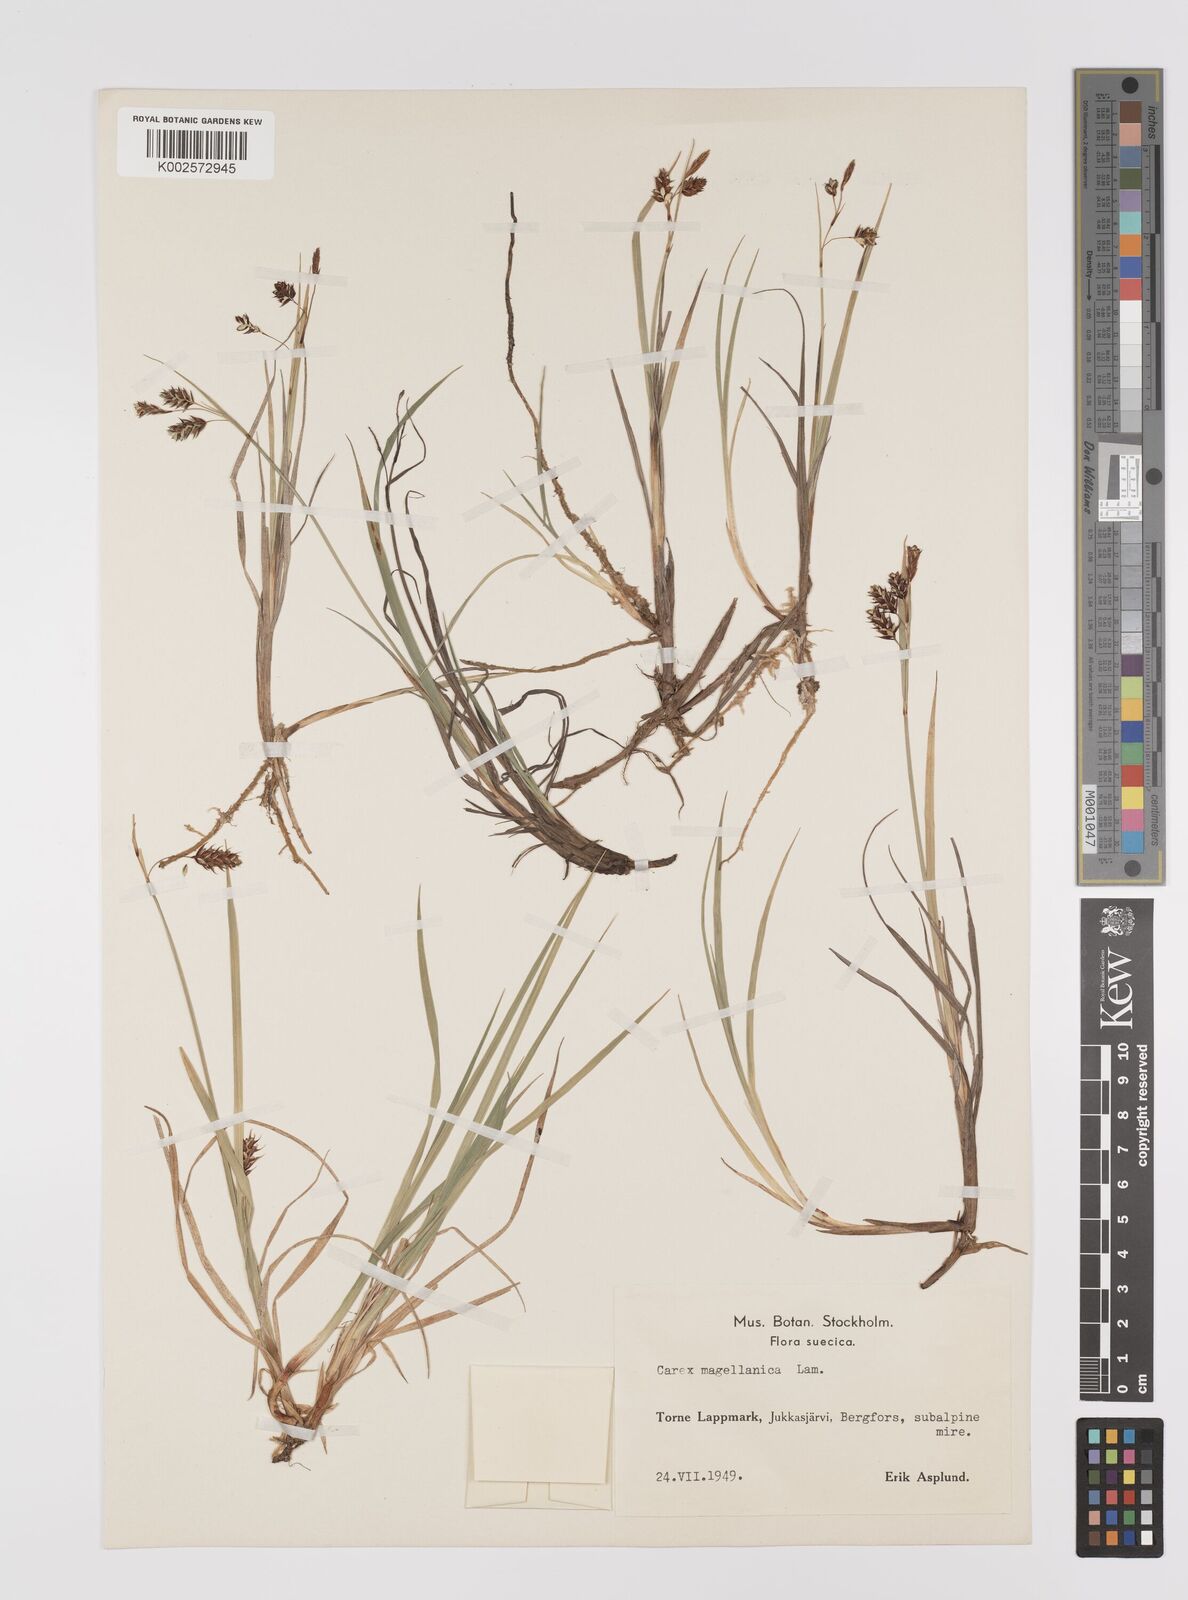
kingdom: Plantae
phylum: Tracheophyta
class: Liliopsida
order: Poales
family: Cyperaceae
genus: Carex
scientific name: Carex magellanica
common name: Bog sedge
